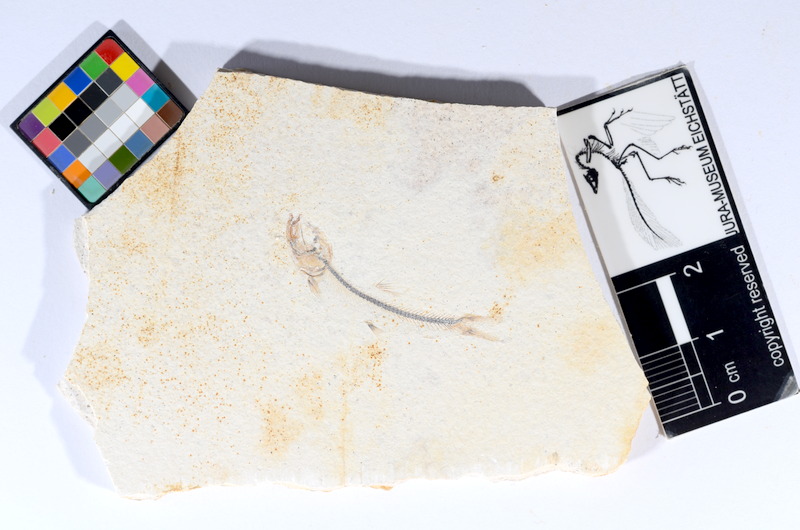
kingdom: Animalia
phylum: Chordata
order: Salmoniformes
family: Orthogonikleithridae
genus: Orthogonikleithrus
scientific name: Orthogonikleithrus hoelli
